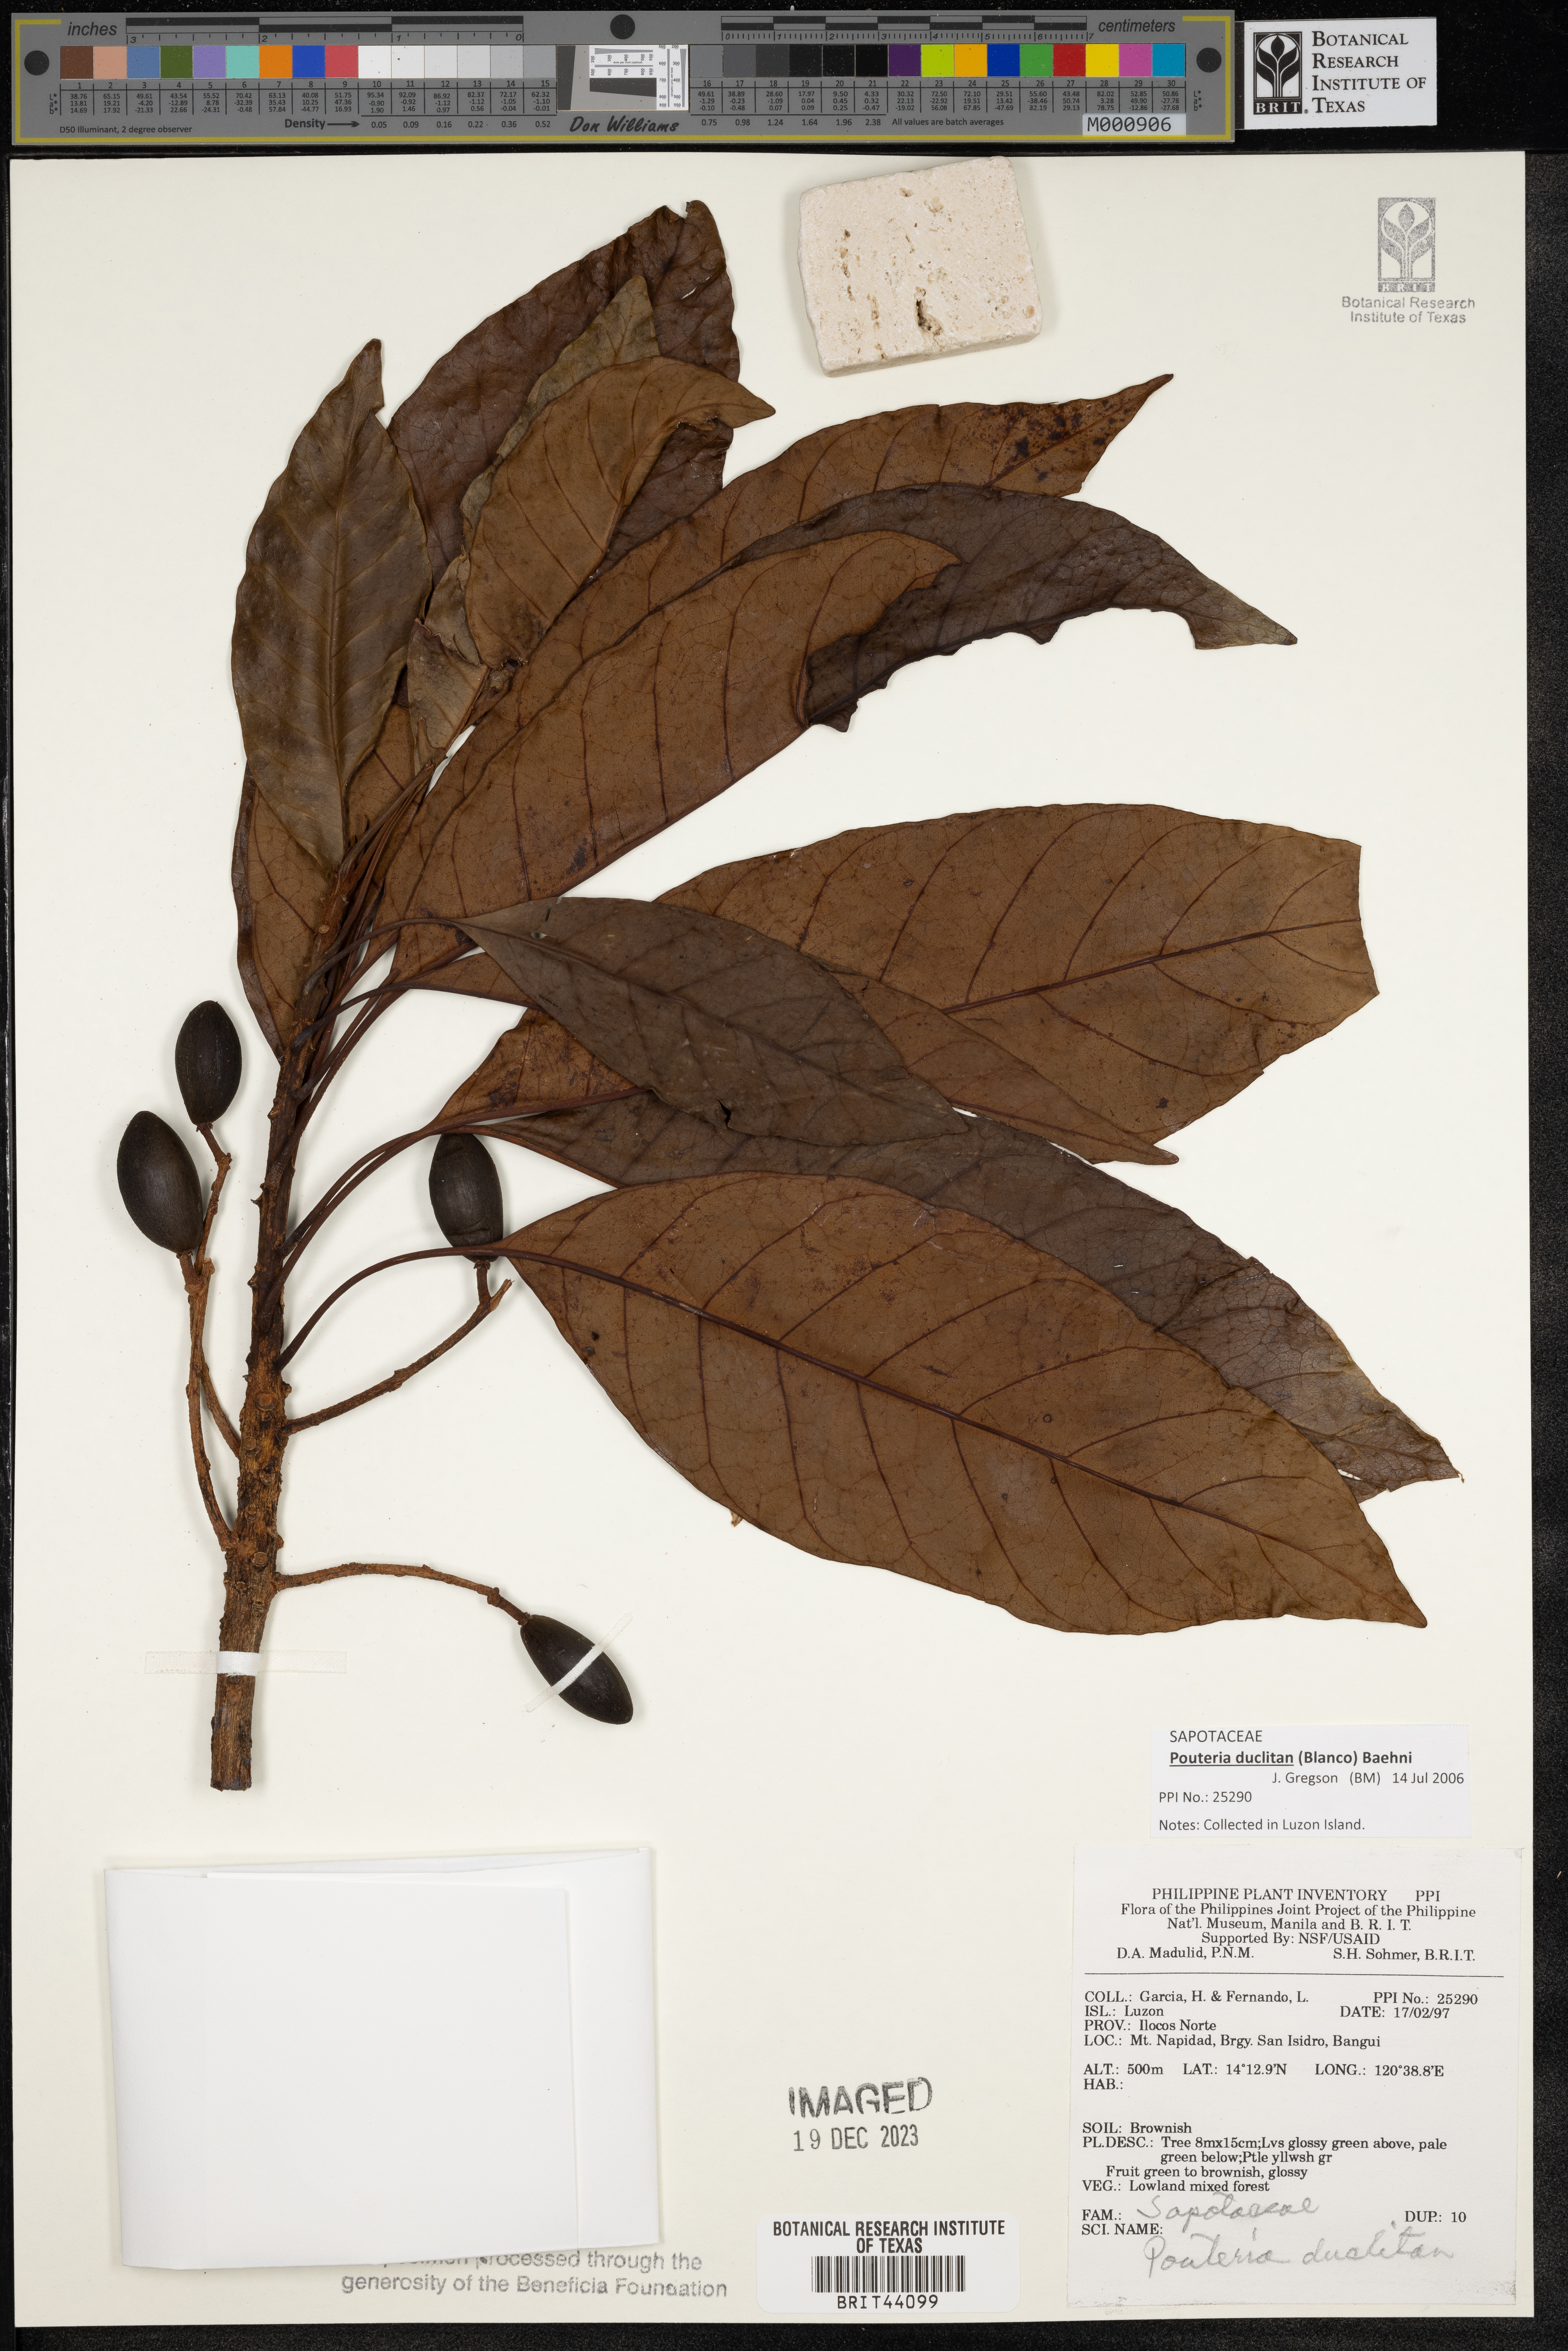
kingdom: Plantae
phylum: Tracheophyta
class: Magnoliopsida
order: Ericales
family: Sapotaceae
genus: Planchonella
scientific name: Planchonella duclitan
